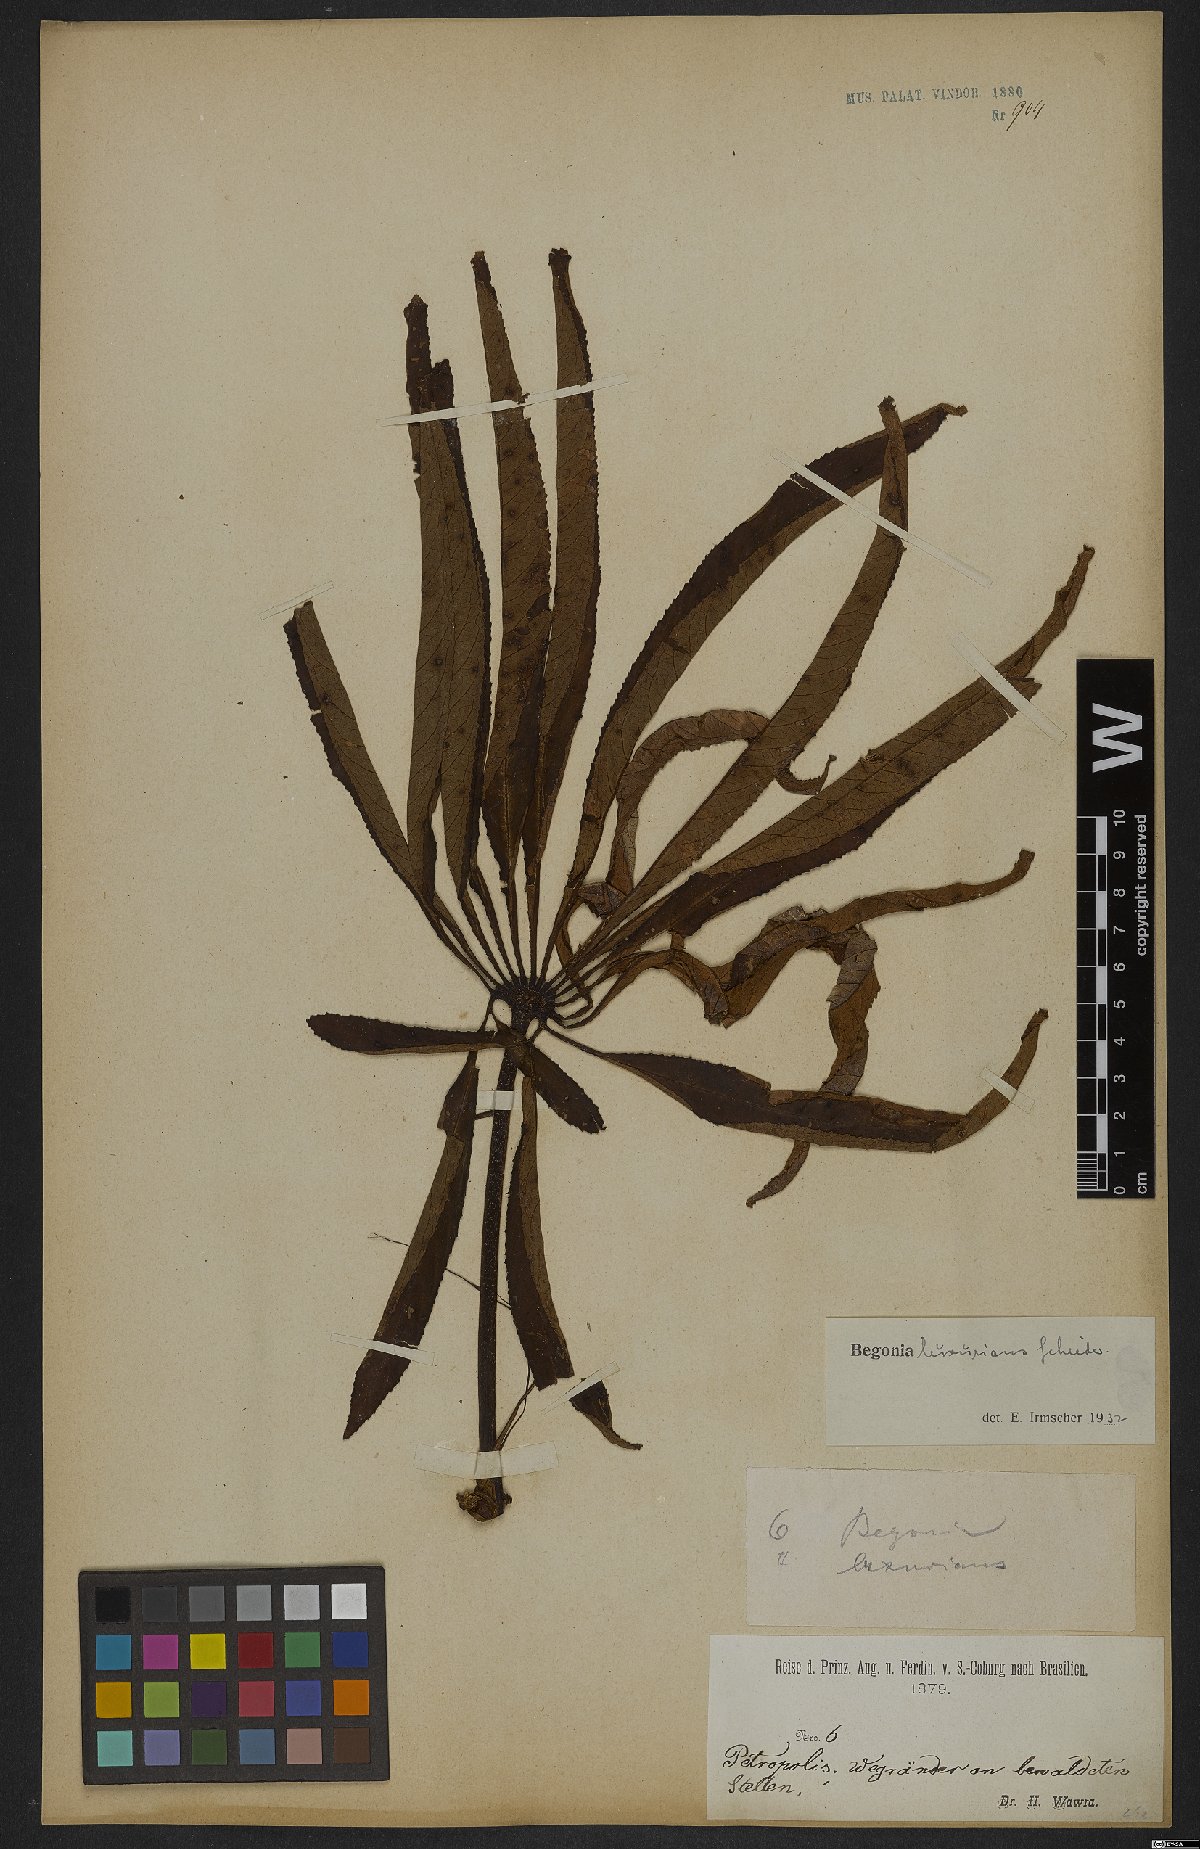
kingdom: Plantae
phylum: Tracheophyta
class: Magnoliopsida
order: Cucurbitales
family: Begoniaceae
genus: Begonia
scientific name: Begonia luxurians
